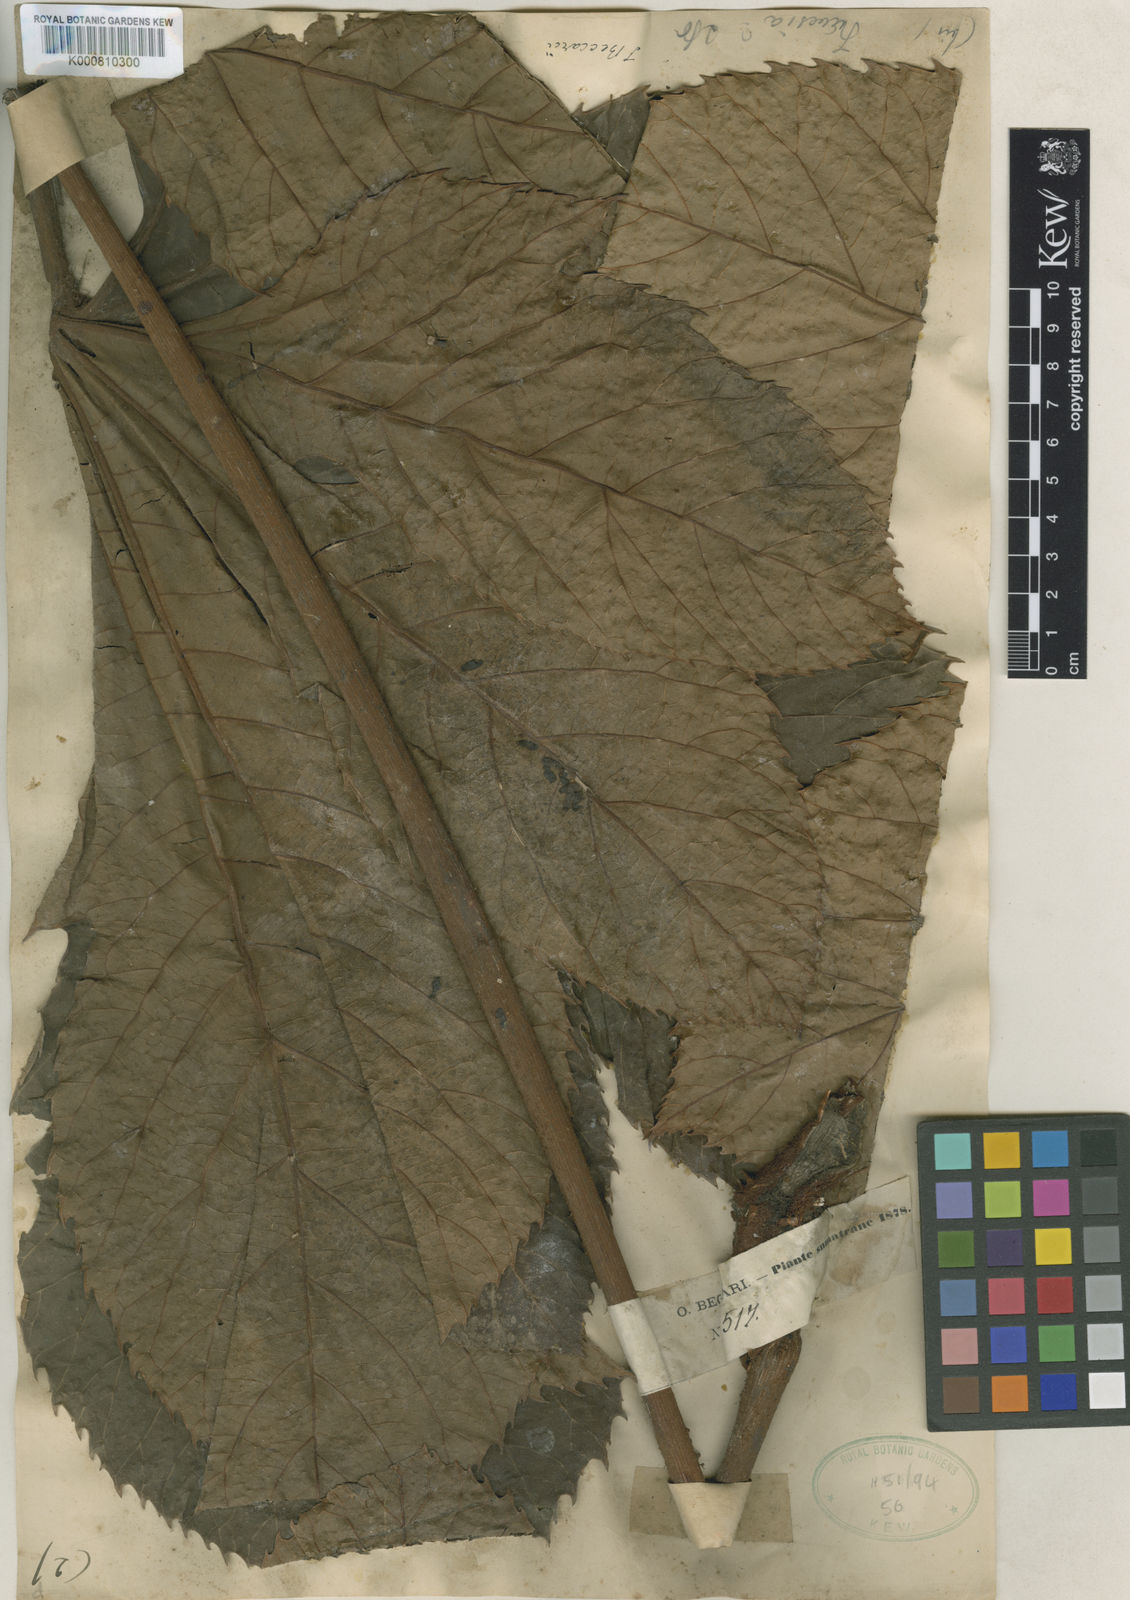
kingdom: Plantae
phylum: Tracheophyta
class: Magnoliopsida
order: Apiales
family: Araliaceae
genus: Trevesia
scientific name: Trevesia beccarii
